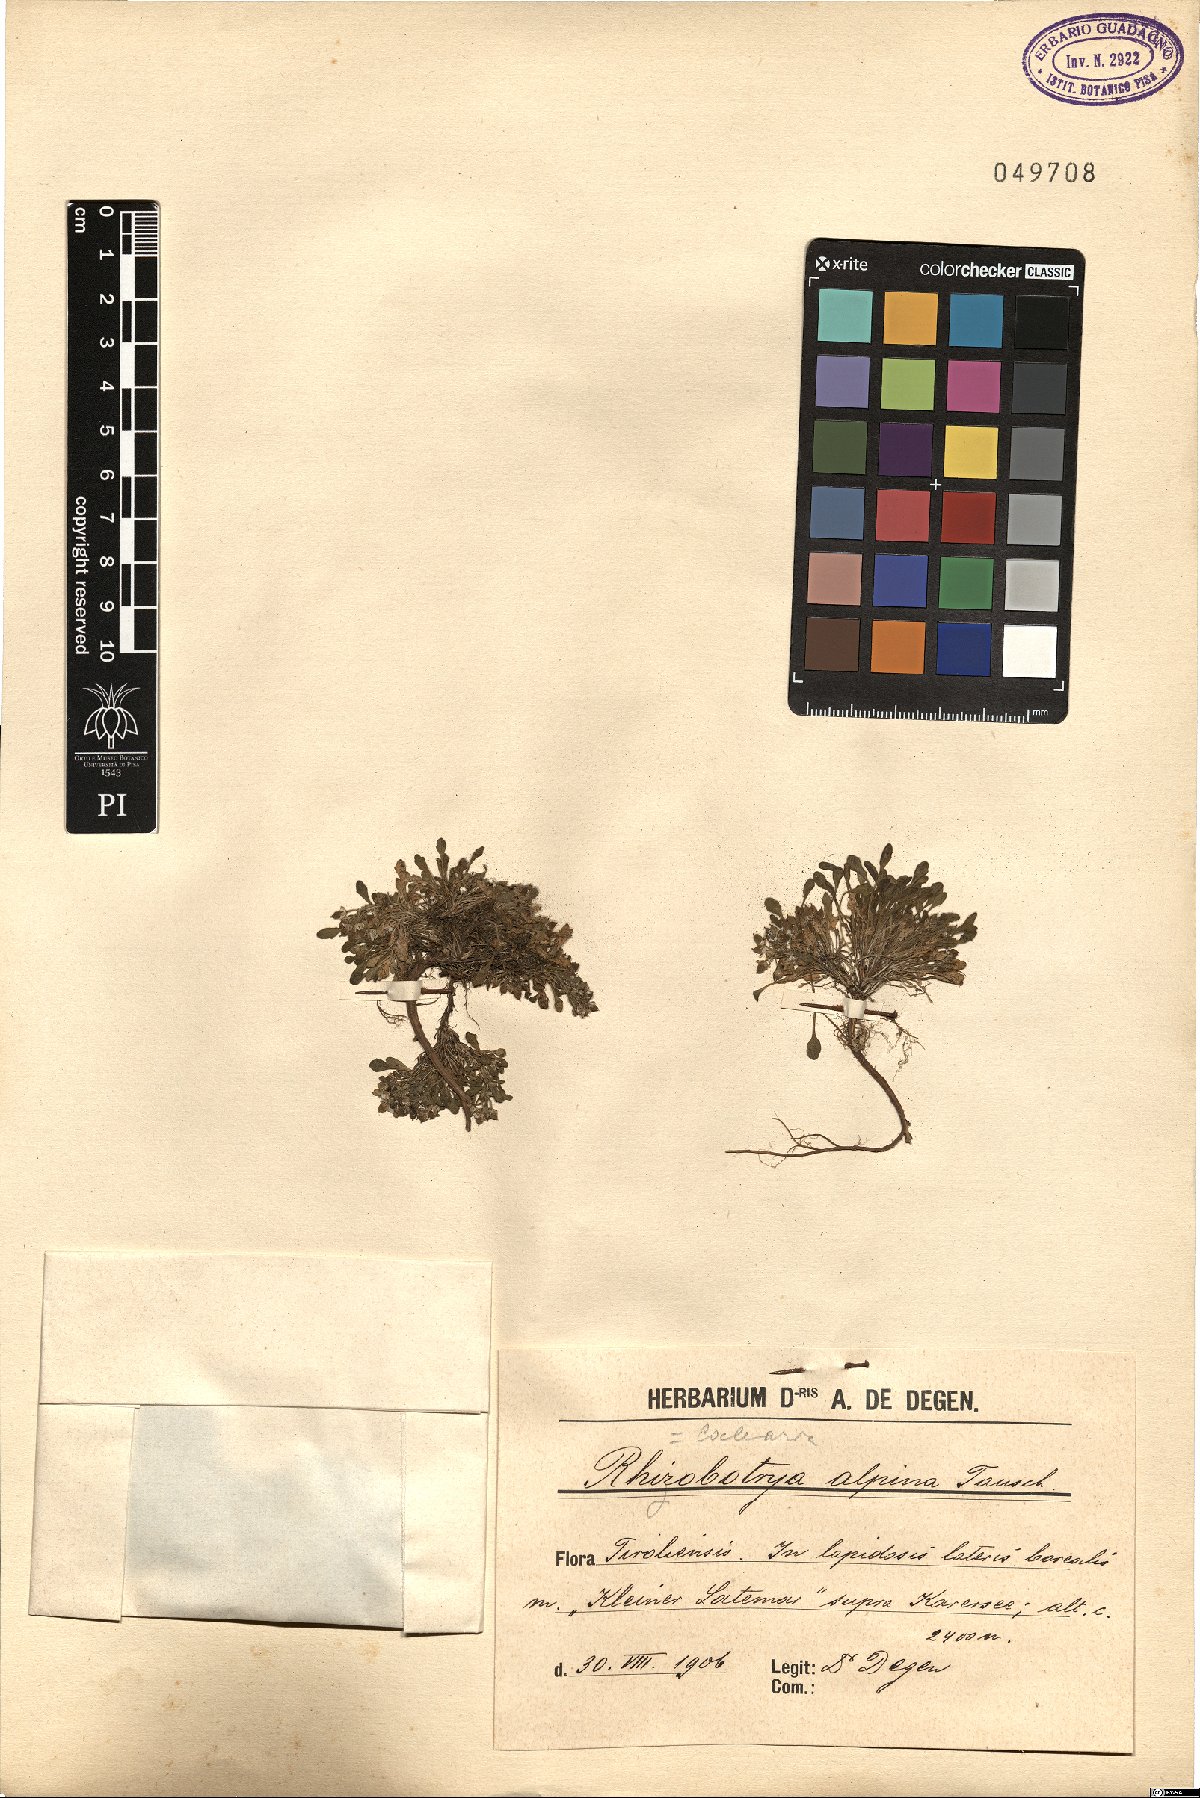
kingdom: Plantae
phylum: Tracheophyta
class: Magnoliopsida
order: Brassicales
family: Brassicaceae
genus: Rhizobotrya
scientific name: Rhizobotrya alpina
